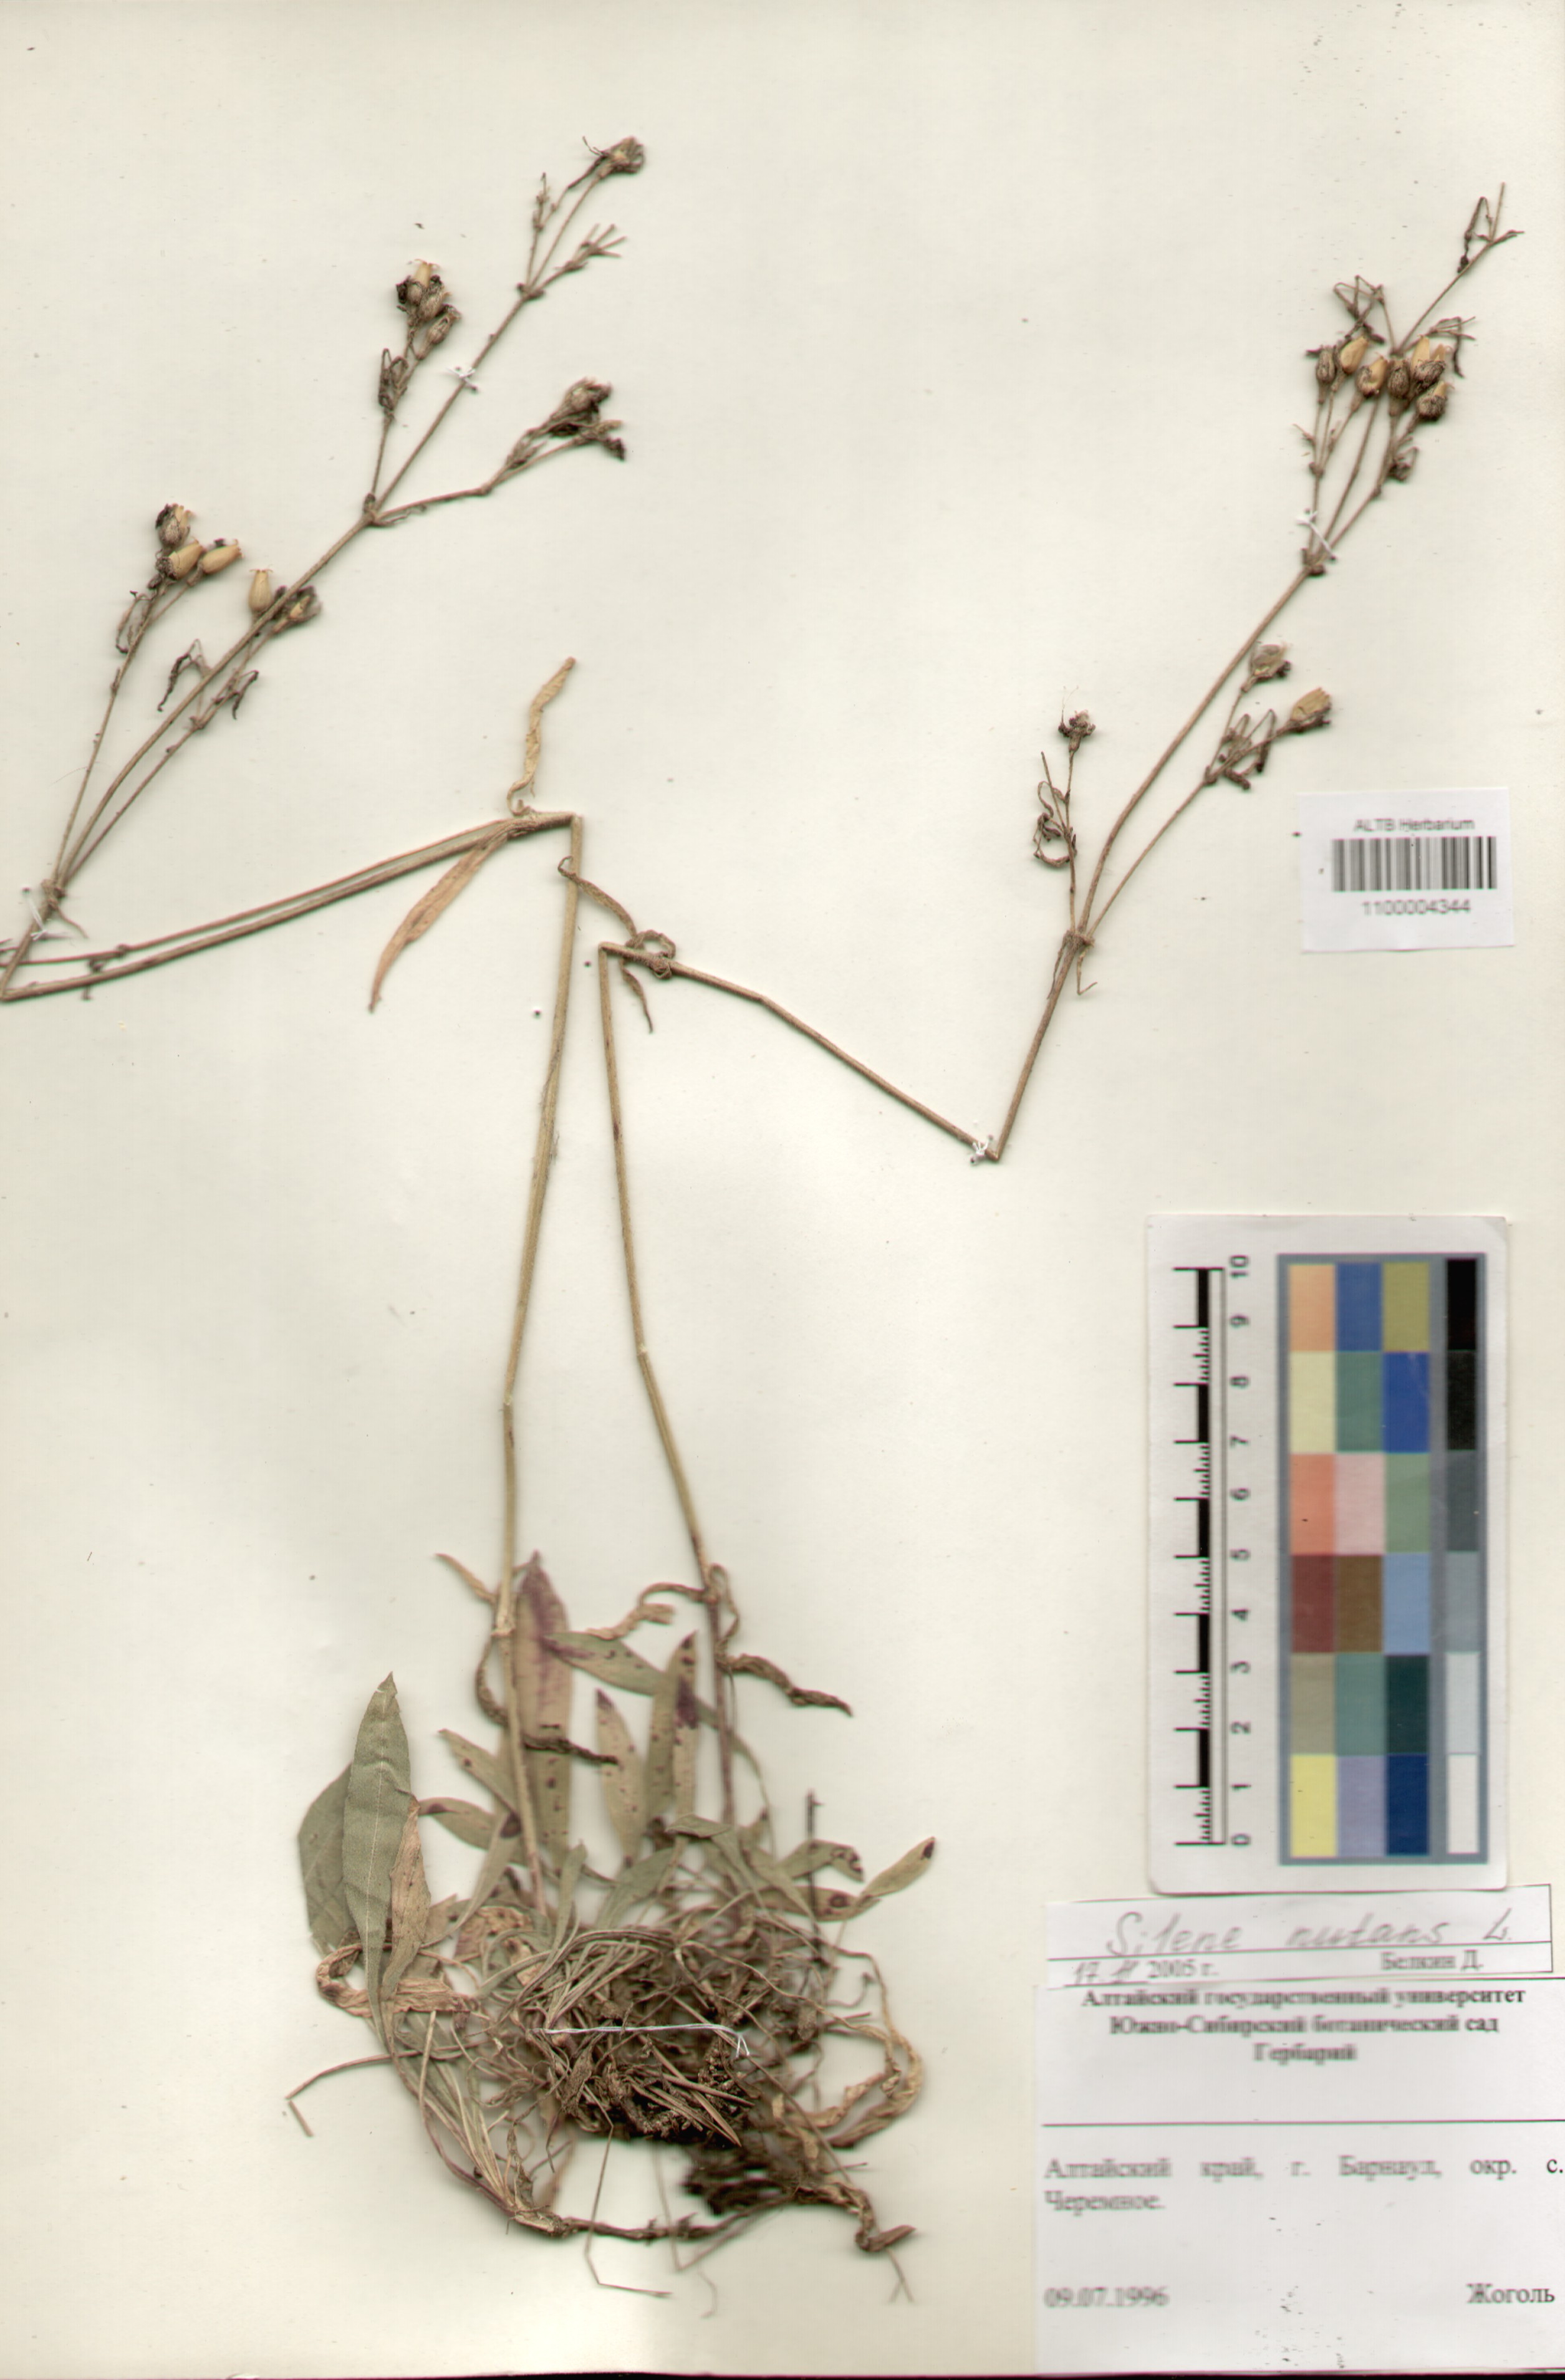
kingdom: Plantae
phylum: Tracheophyta
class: Magnoliopsida
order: Caryophyllales
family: Caryophyllaceae
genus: Silene
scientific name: Silene nutans
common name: Nottingham catchfly
